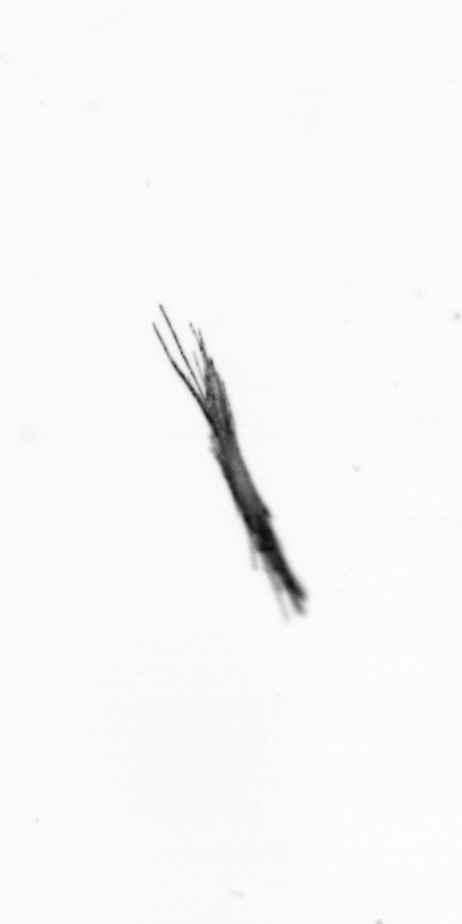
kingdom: Bacteria
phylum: Cyanobacteria
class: Cyanobacteriia
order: Cyanobacteriales
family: Microcoleaceae
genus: Trichodesmium
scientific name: Trichodesmium
